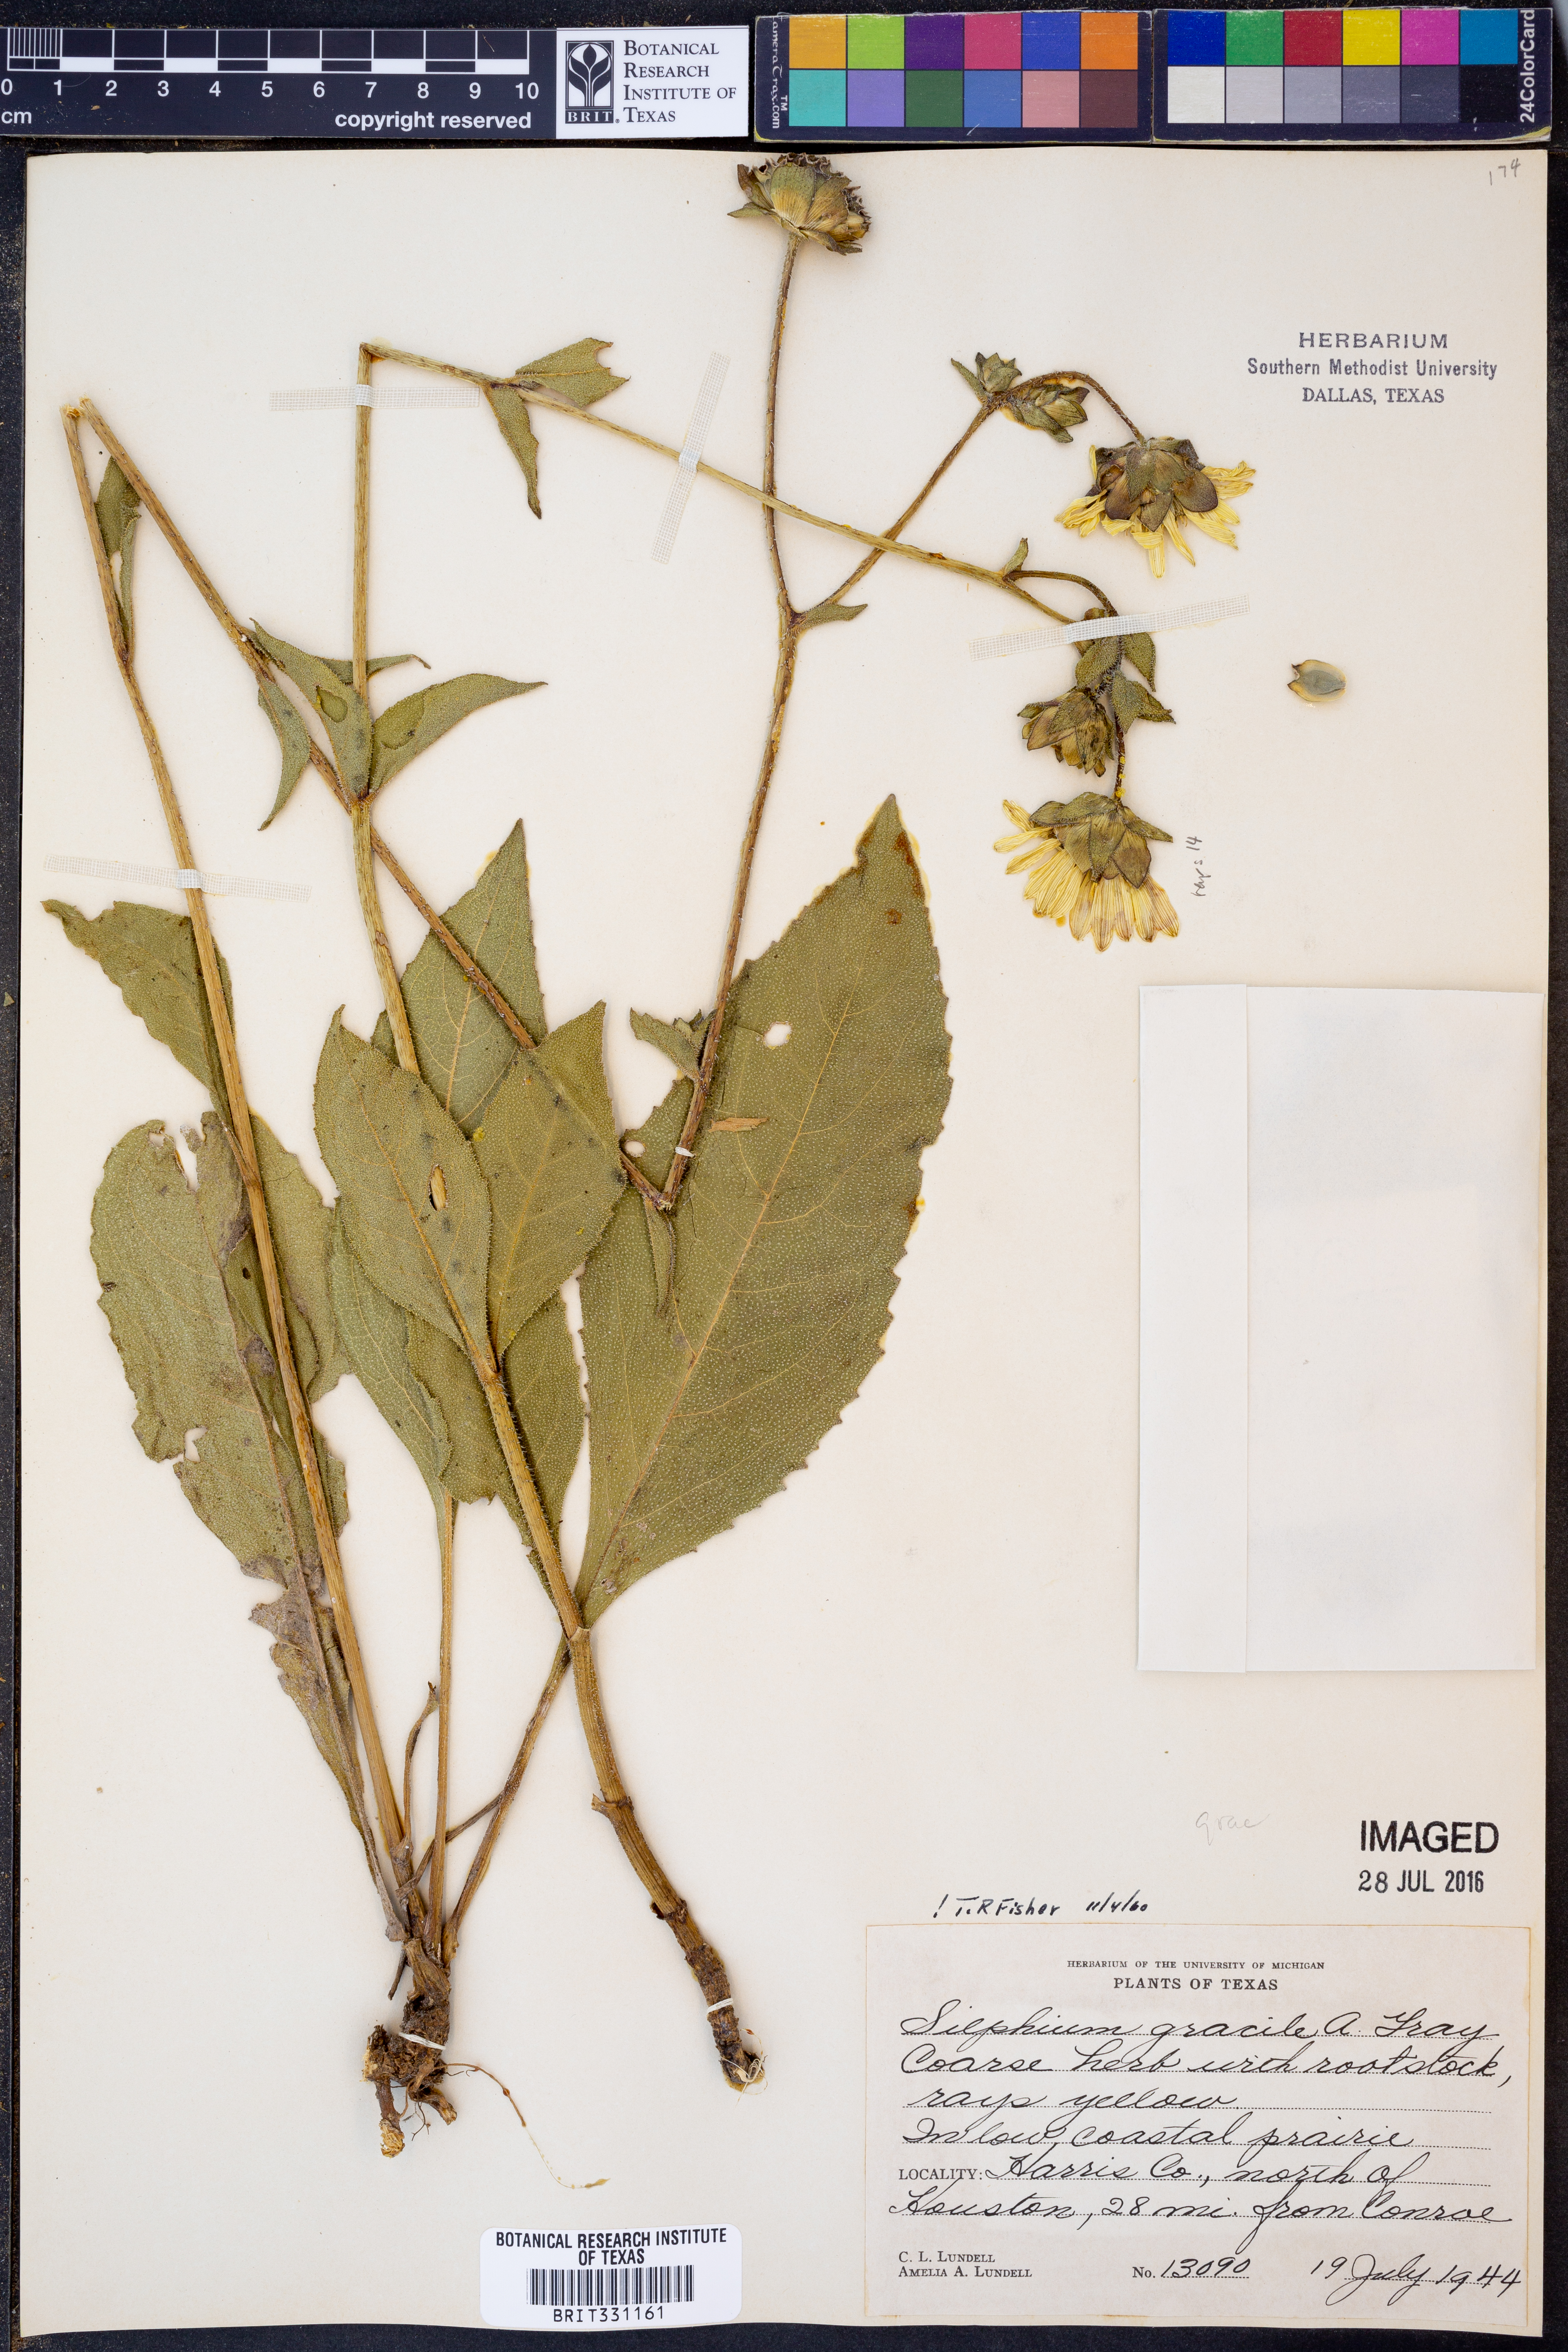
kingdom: Plantae
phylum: Tracheophyta
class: Magnoliopsida
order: Asterales
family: Asteraceae
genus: Silphium
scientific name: Silphium radula
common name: Roughleaf rosinweed
